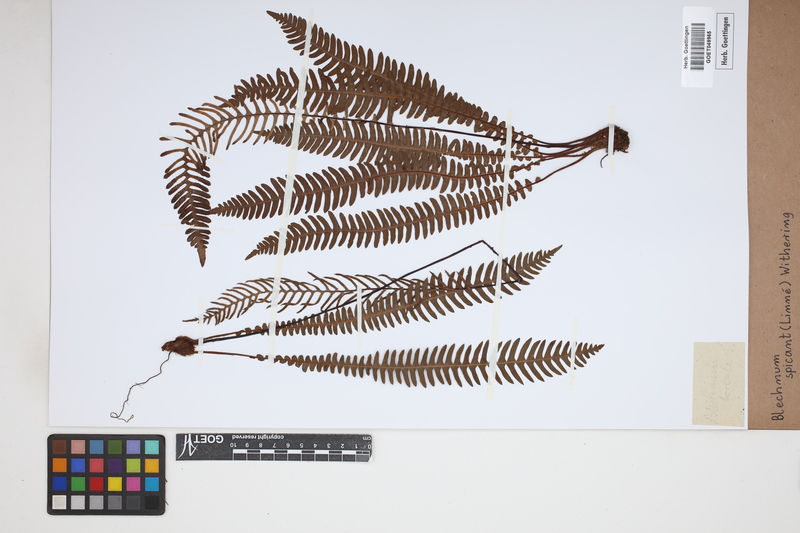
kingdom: Plantae
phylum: Tracheophyta
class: Polypodiopsida
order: Polypodiales
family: Blechnaceae
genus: Struthiopteris
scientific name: Struthiopteris spicant
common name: Deer fern
